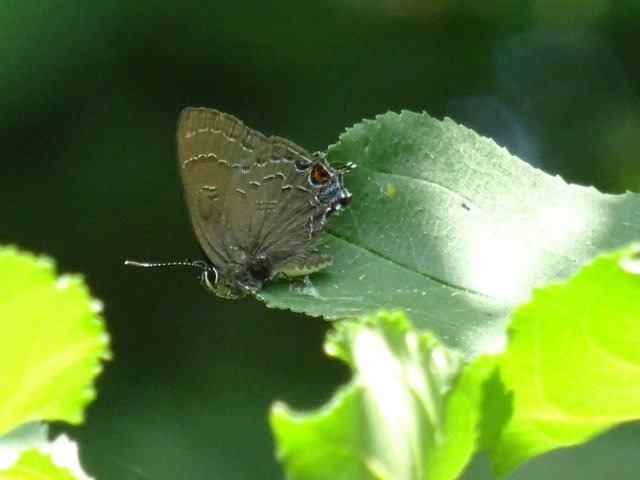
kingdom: Animalia
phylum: Arthropoda
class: Insecta
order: Lepidoptera
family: Lycaenidae
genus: Satyrium
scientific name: Satyrium calanus
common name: Banded Hairstreak
